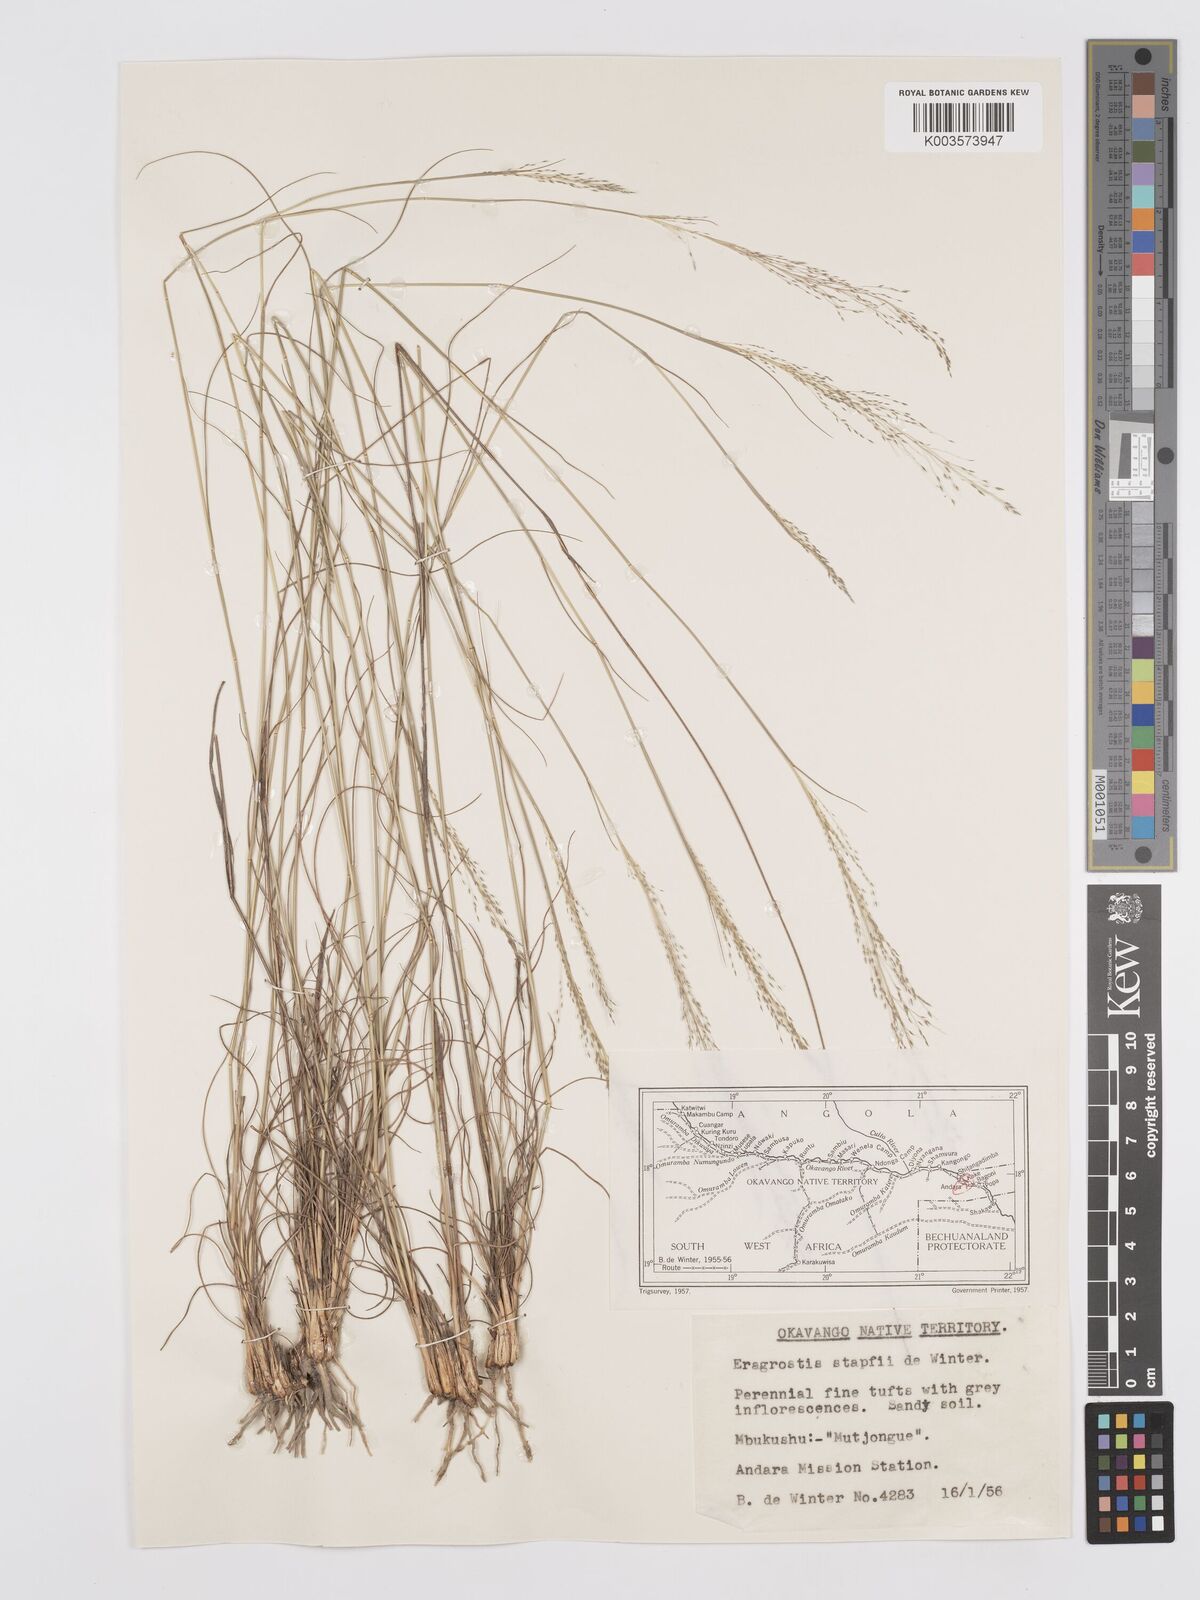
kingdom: Plantae
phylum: Tracheophyta
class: Liliopsida
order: Poales
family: Poaceae
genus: Eragrostis
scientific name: Eragrostis stapfii
